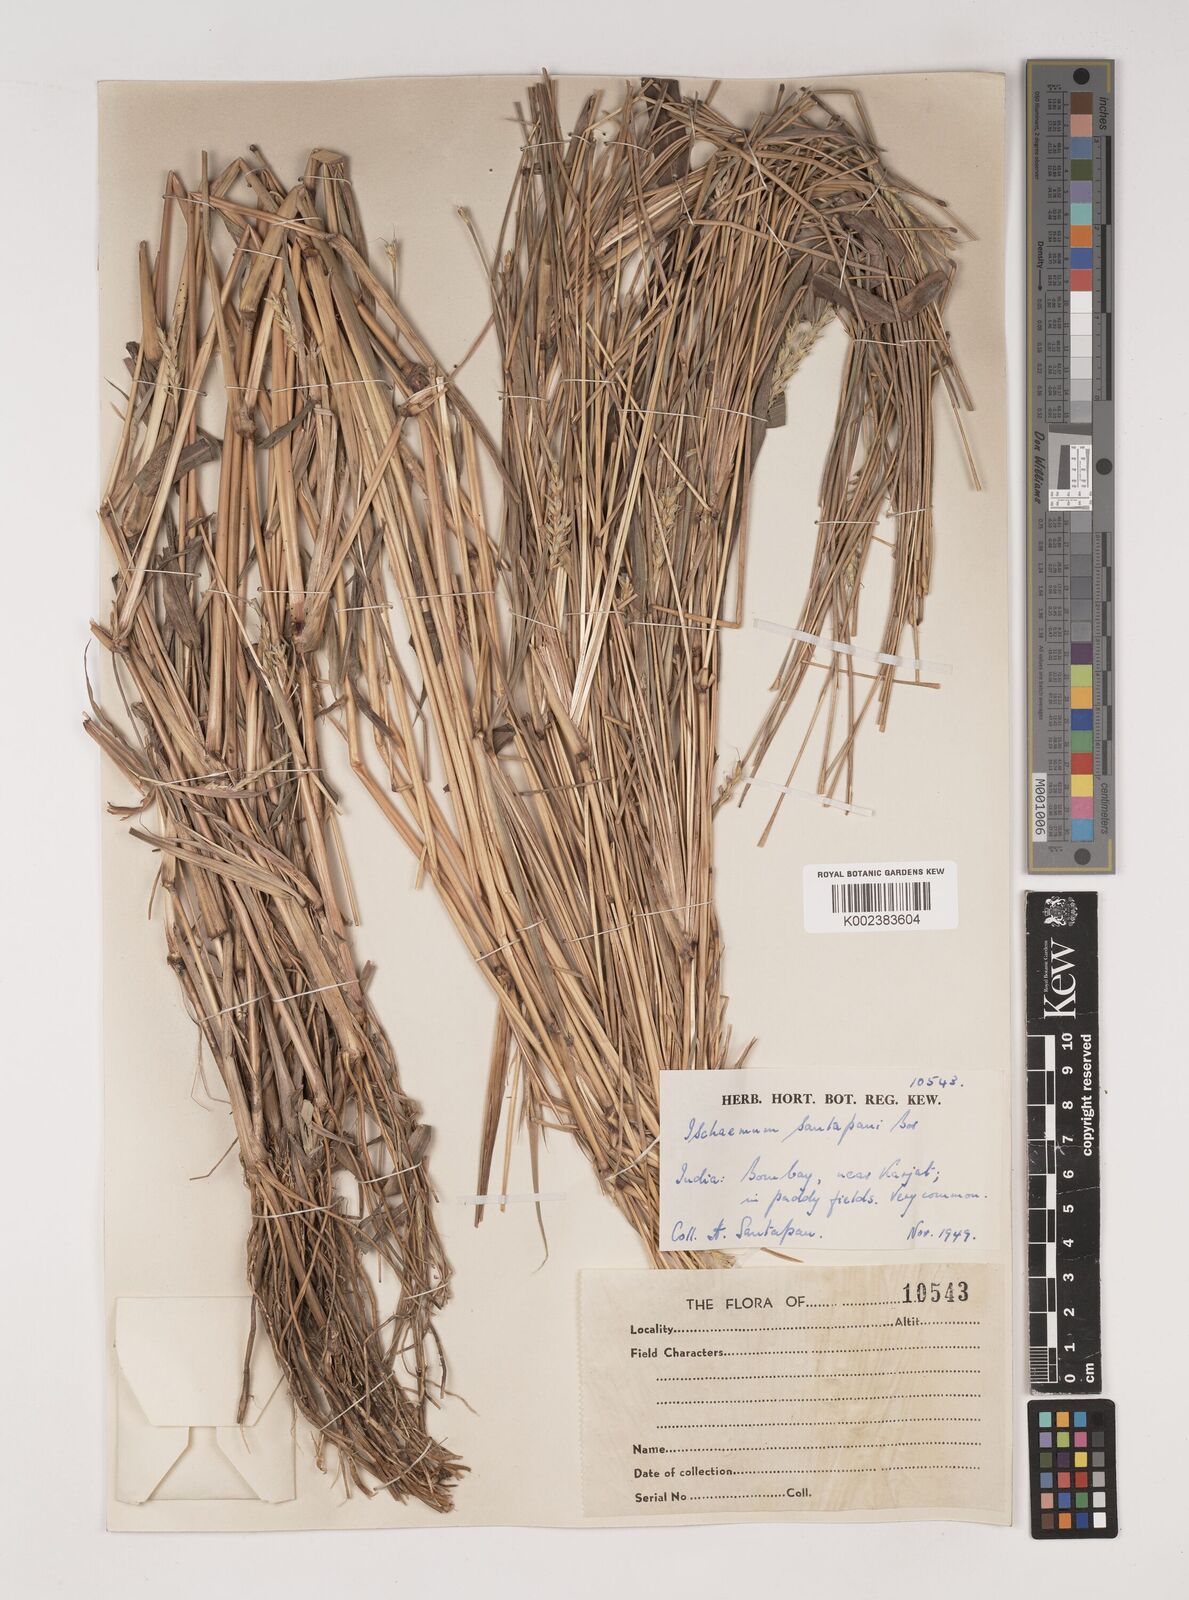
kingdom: Plantae
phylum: Tracheophyta
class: Liliopsida
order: Poales
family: Poaceae
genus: Ischaemum
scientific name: Ischaemum santapaui
